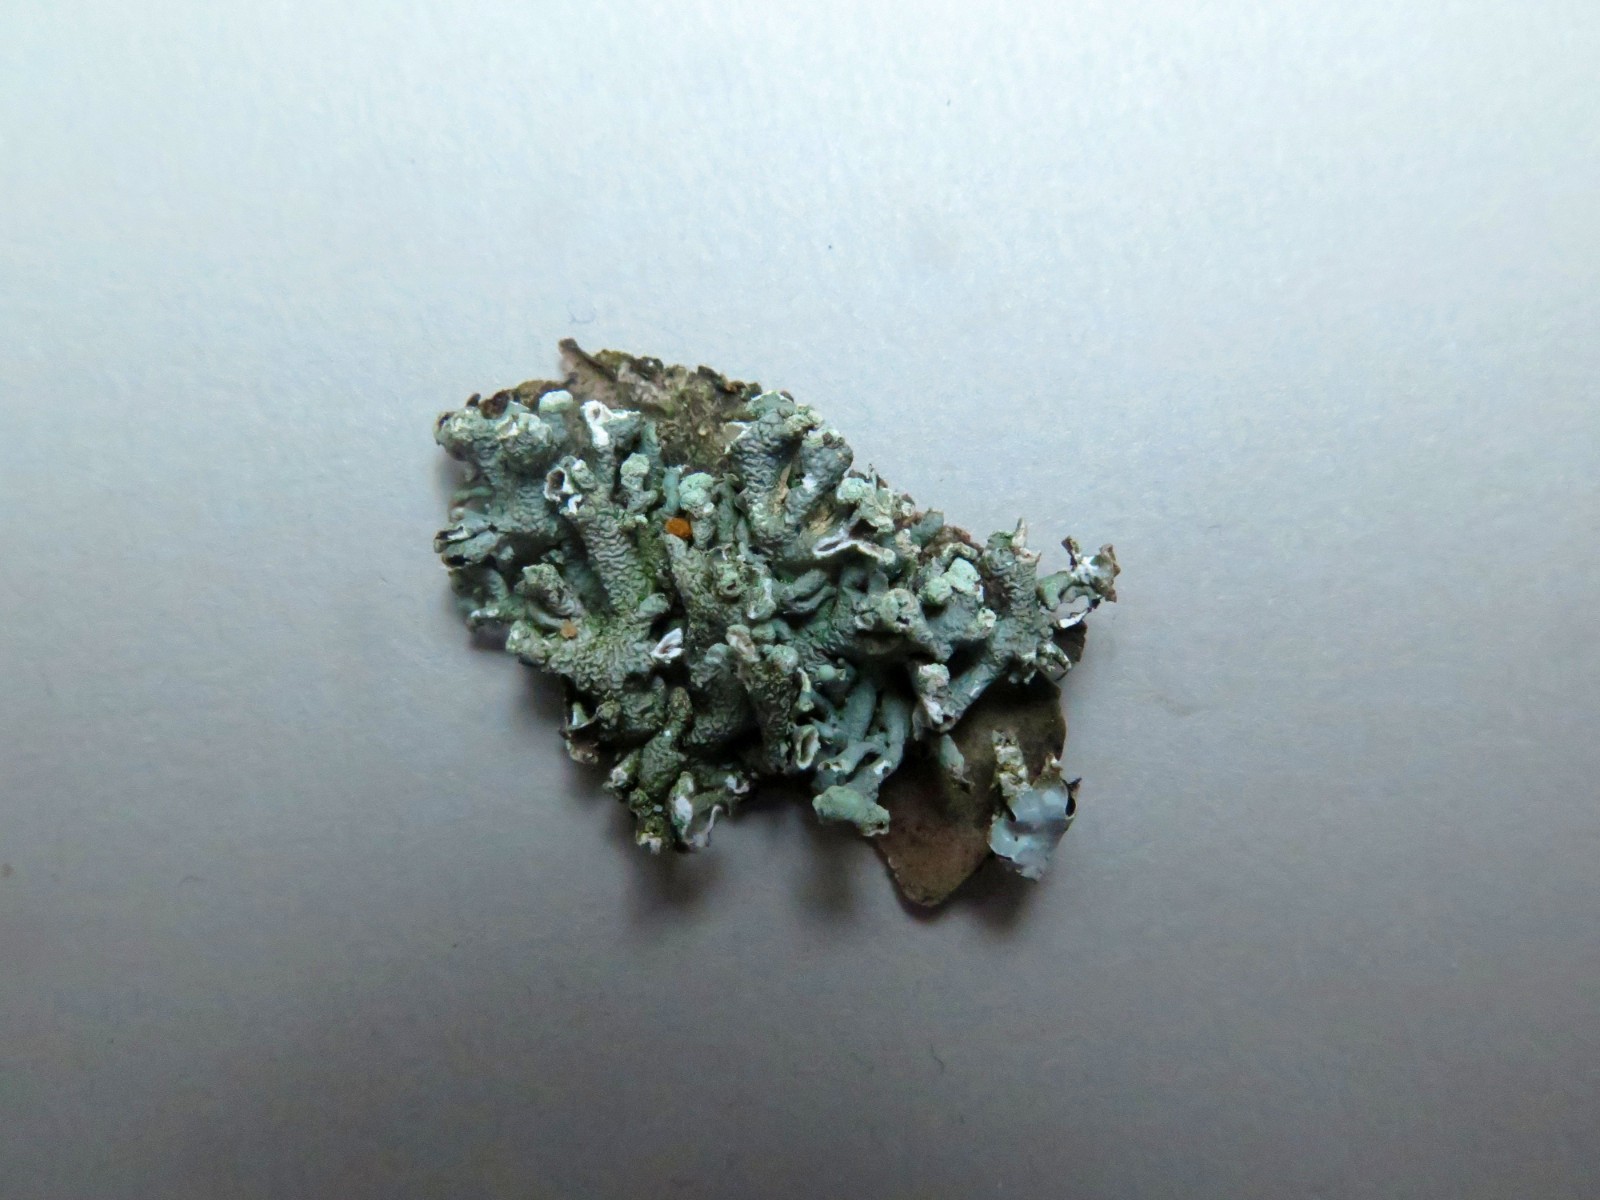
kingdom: Fungi
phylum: Ascomycota
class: Lecanoromycetes
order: Lecanorales
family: Parmeliaceae
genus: Hypogymnia
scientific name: Hypogymnia tubulosa
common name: finger-kvistlav
